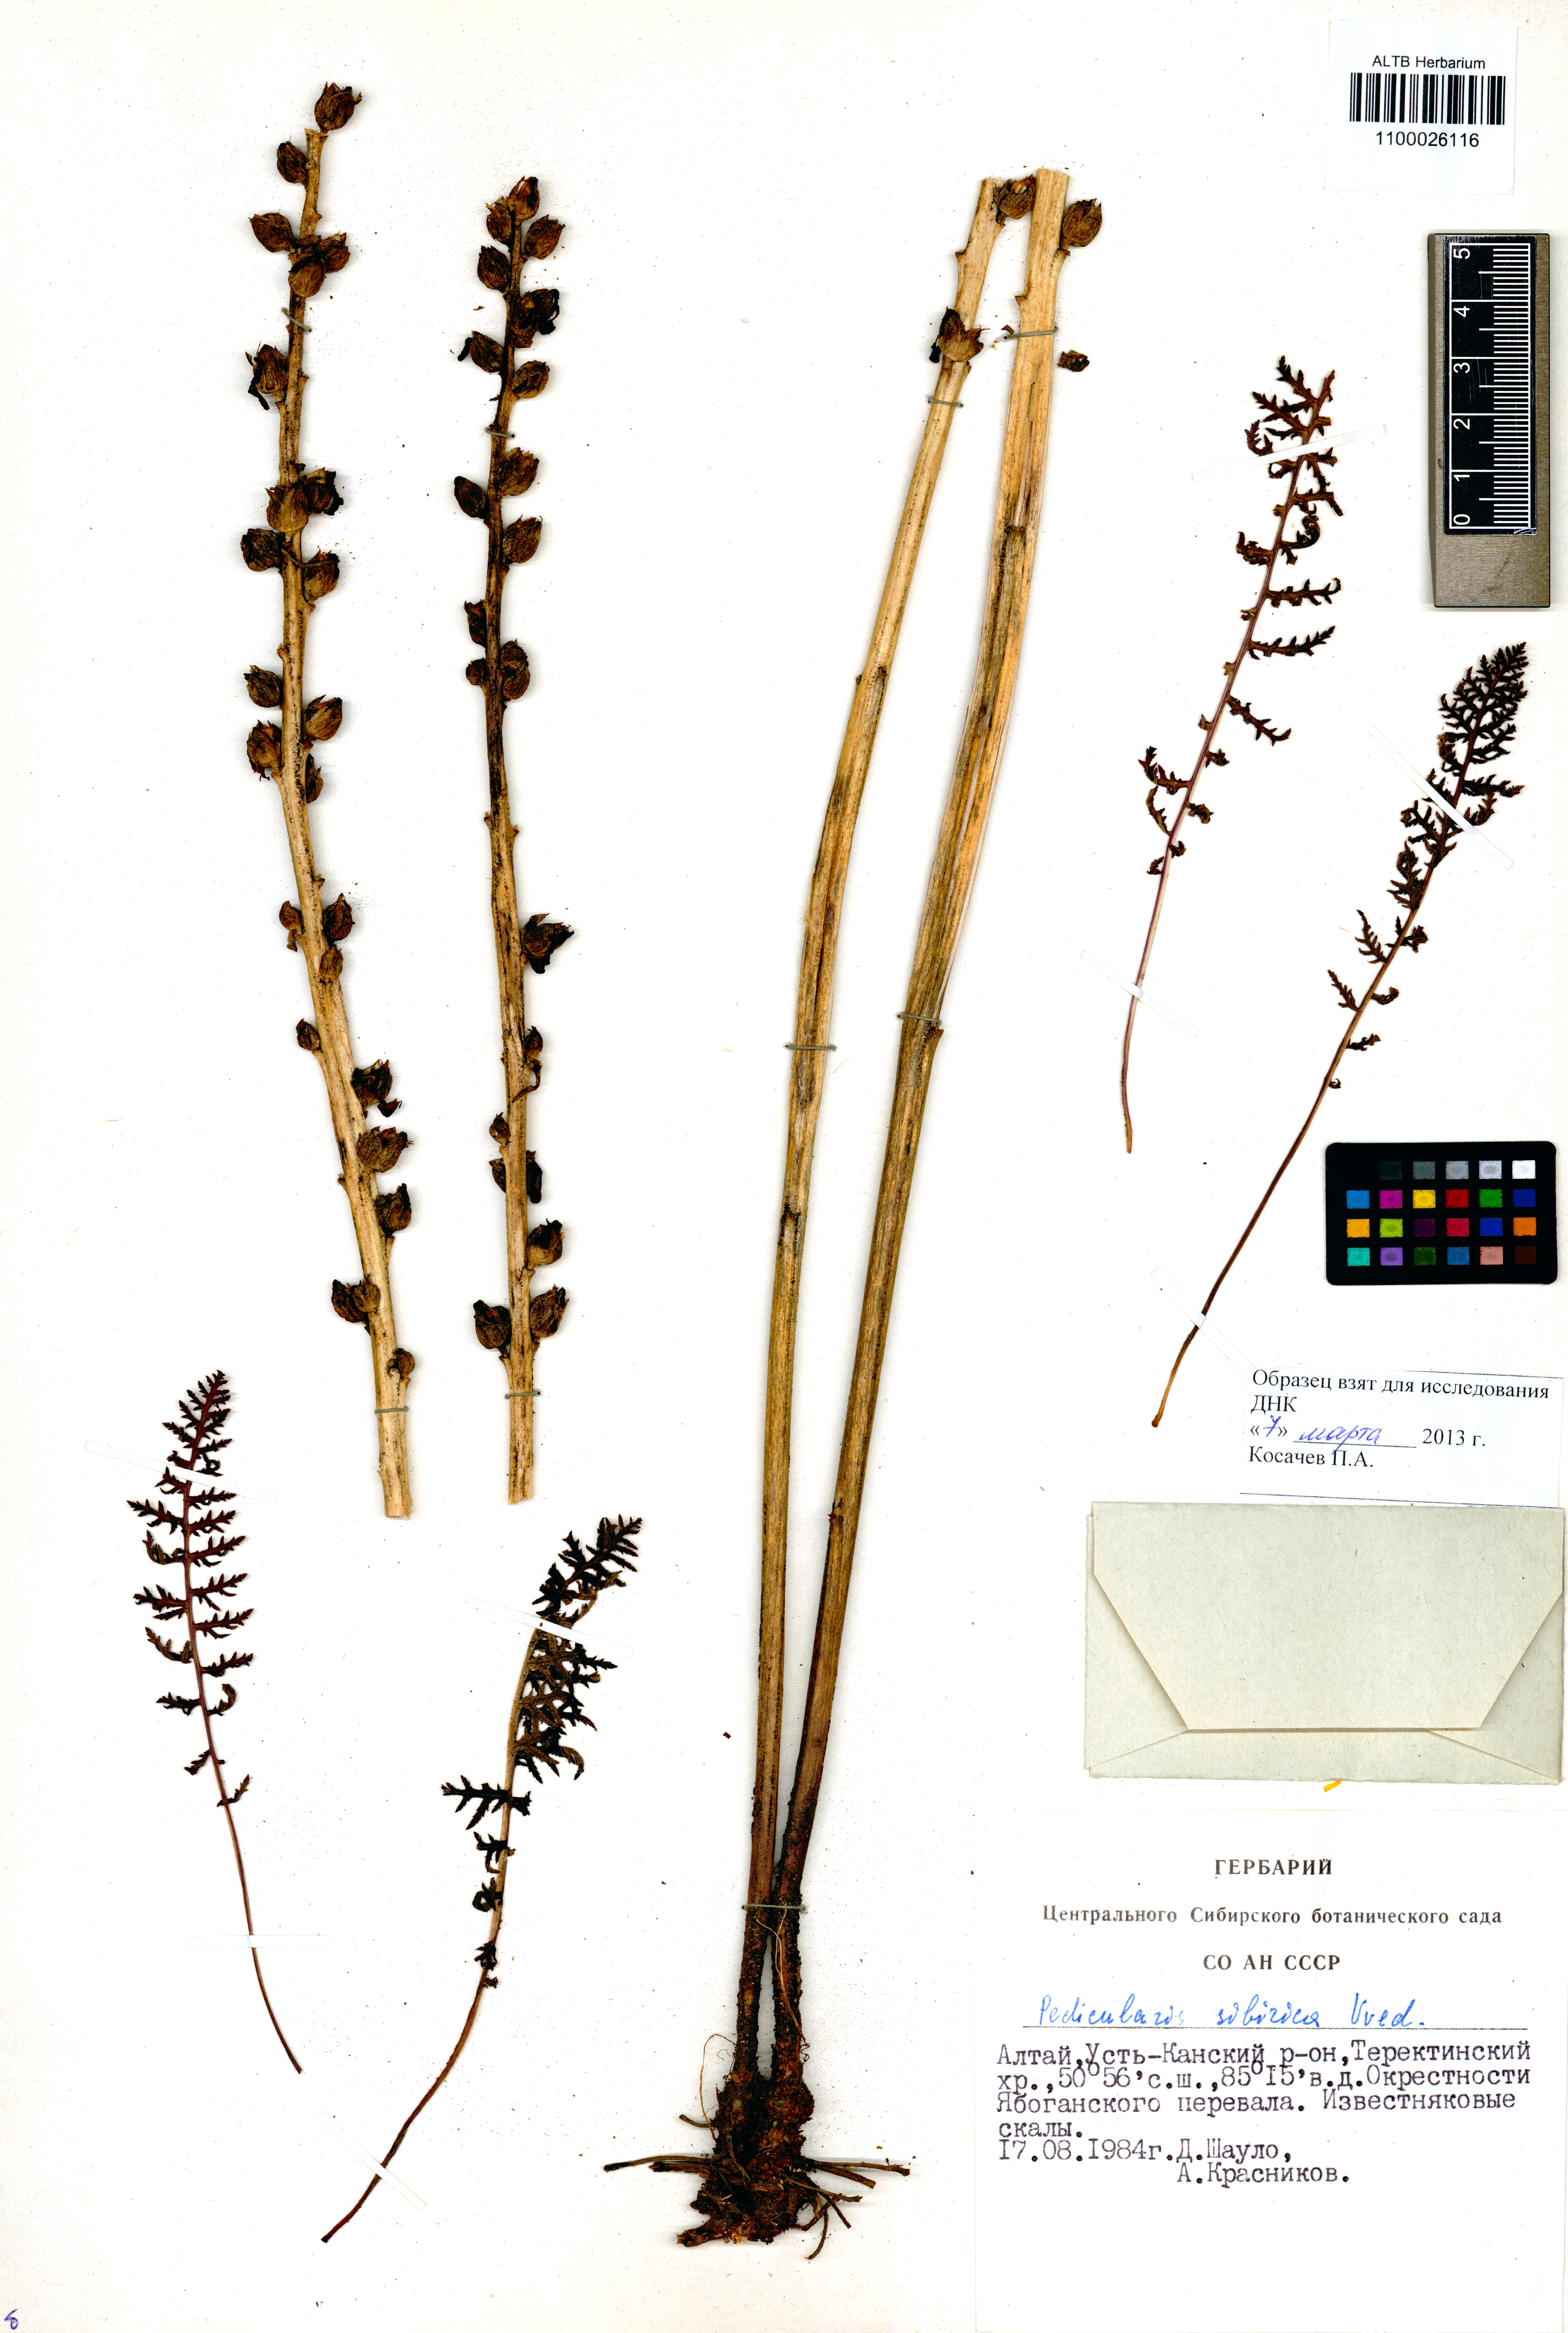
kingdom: Plantae
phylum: Tracheophyta
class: Magnoliopsida
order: Lamiales
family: Orobanchaceae
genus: Pedicularis
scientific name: Pedicularis sibirica
